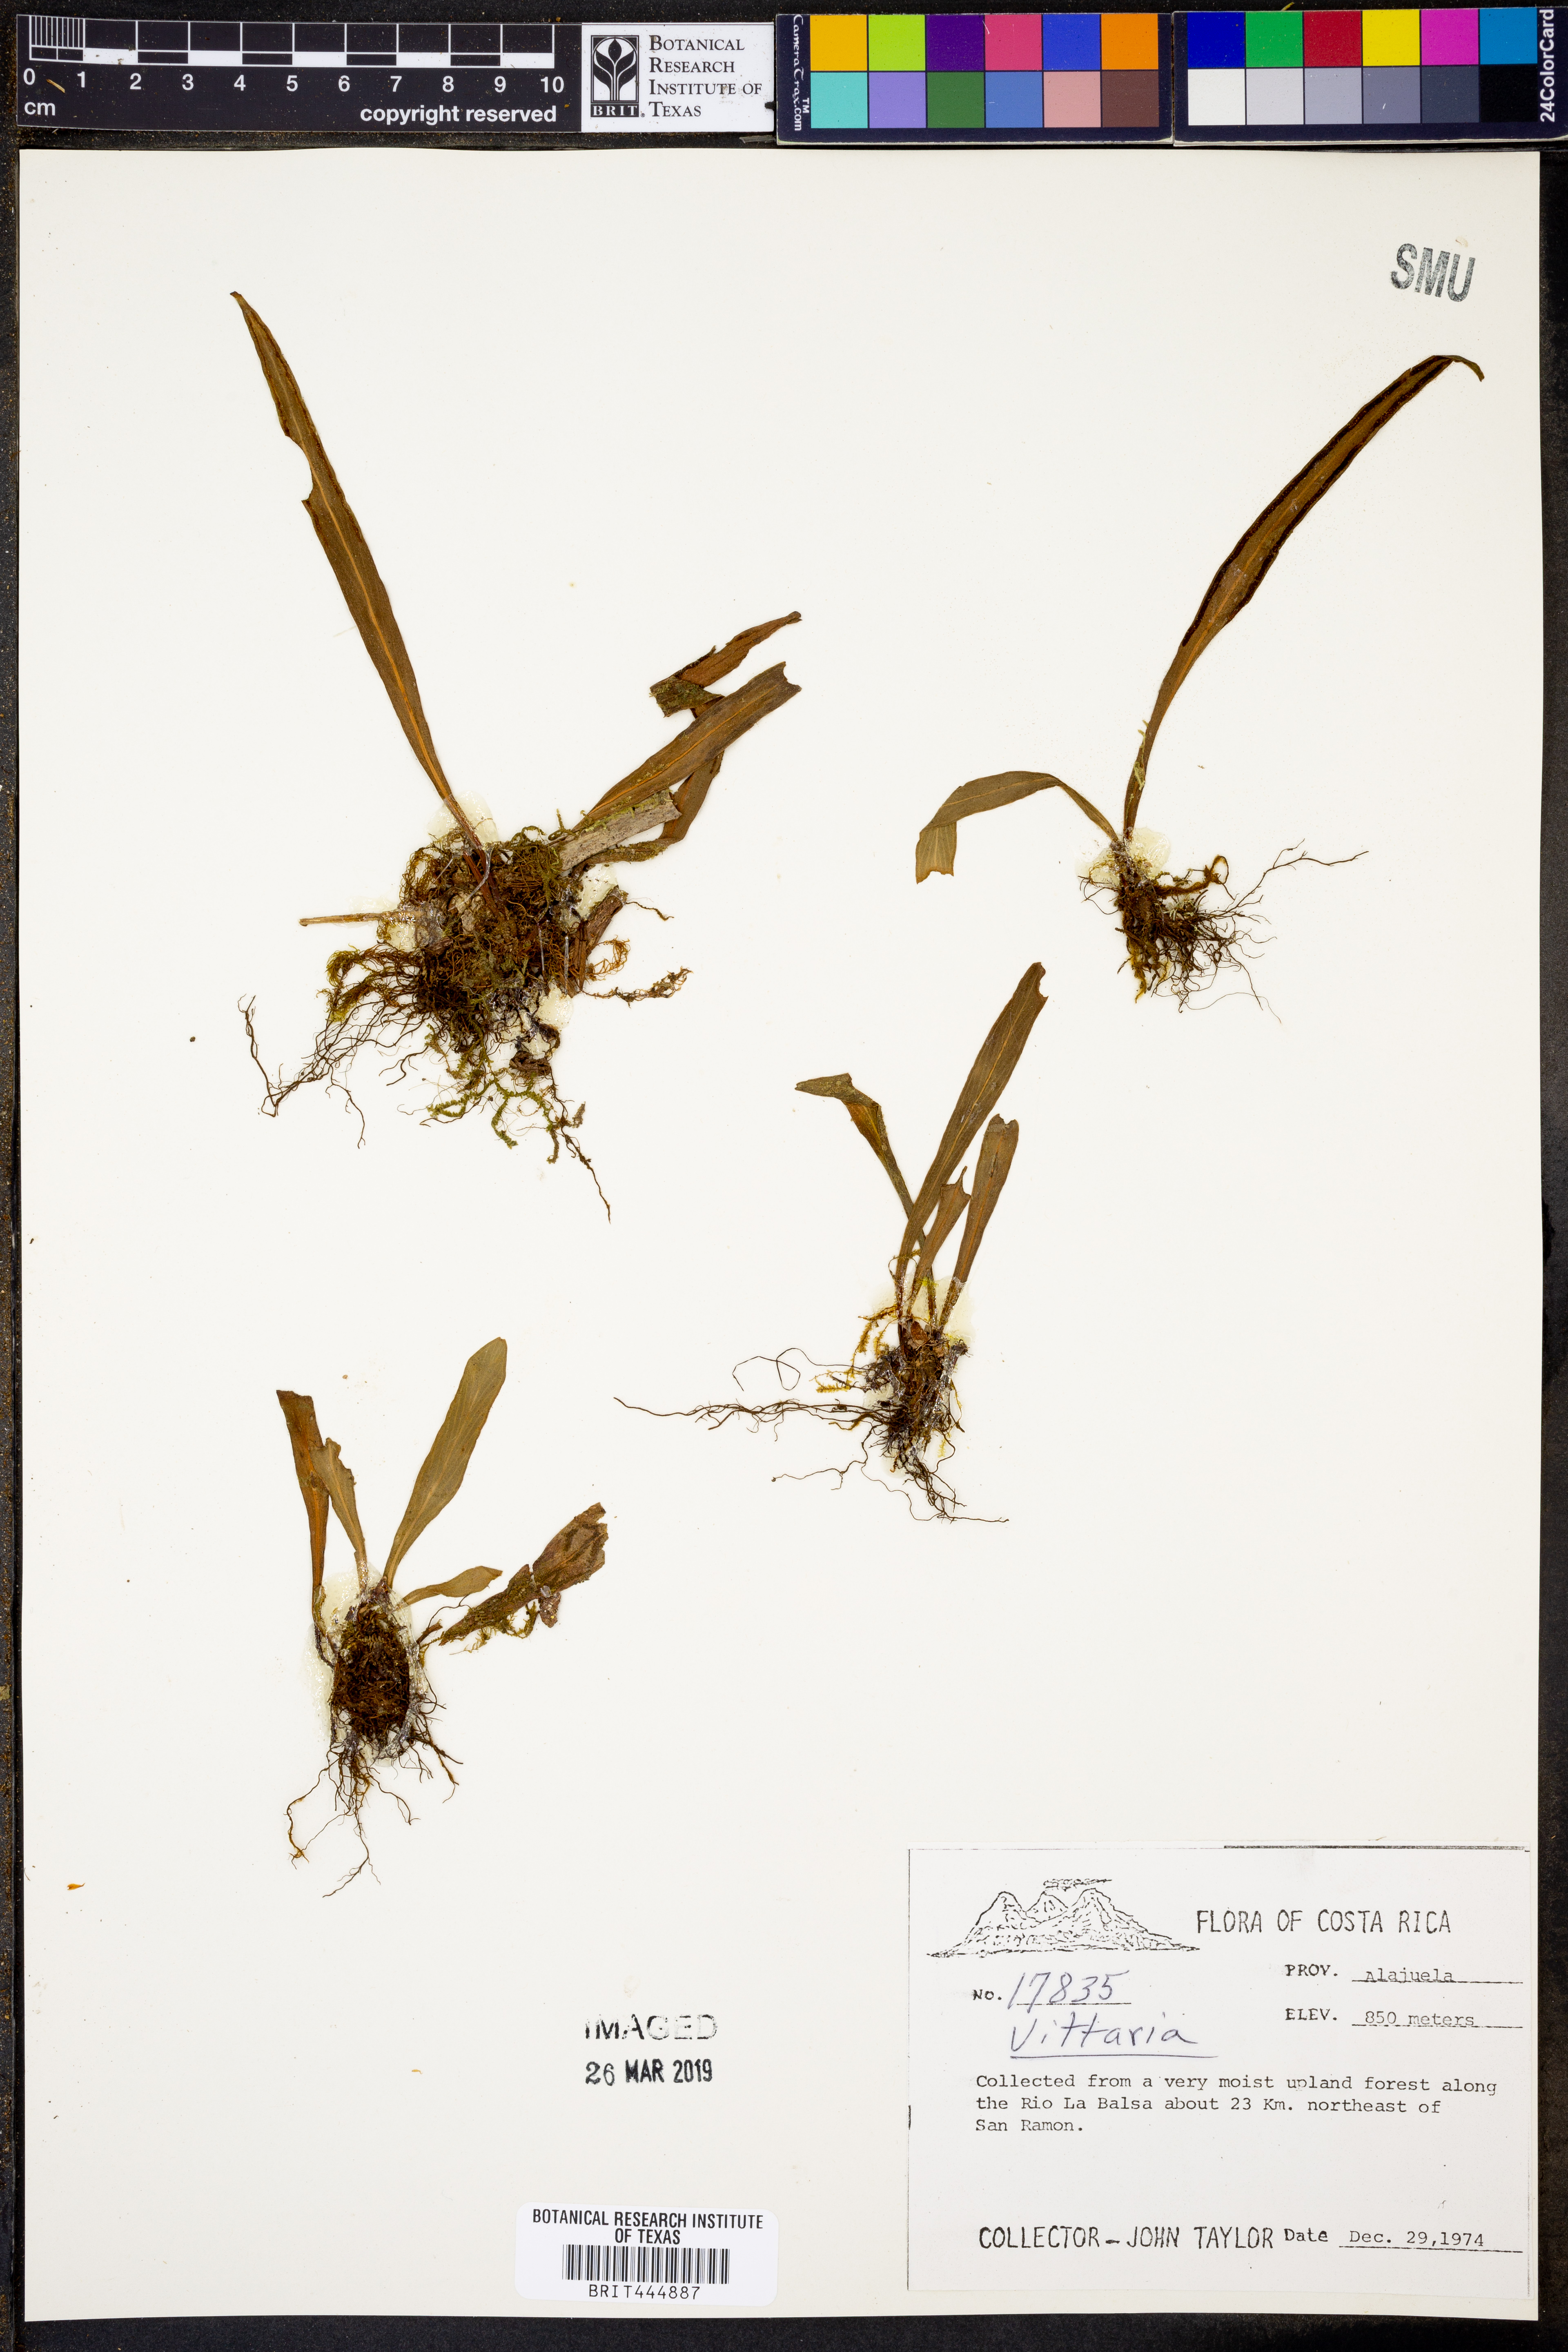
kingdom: Plantae
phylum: Tracheophyta
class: Polypodiopsida
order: Polypodiales
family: Pteridaceae
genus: Vittaria
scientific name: Vittaria
